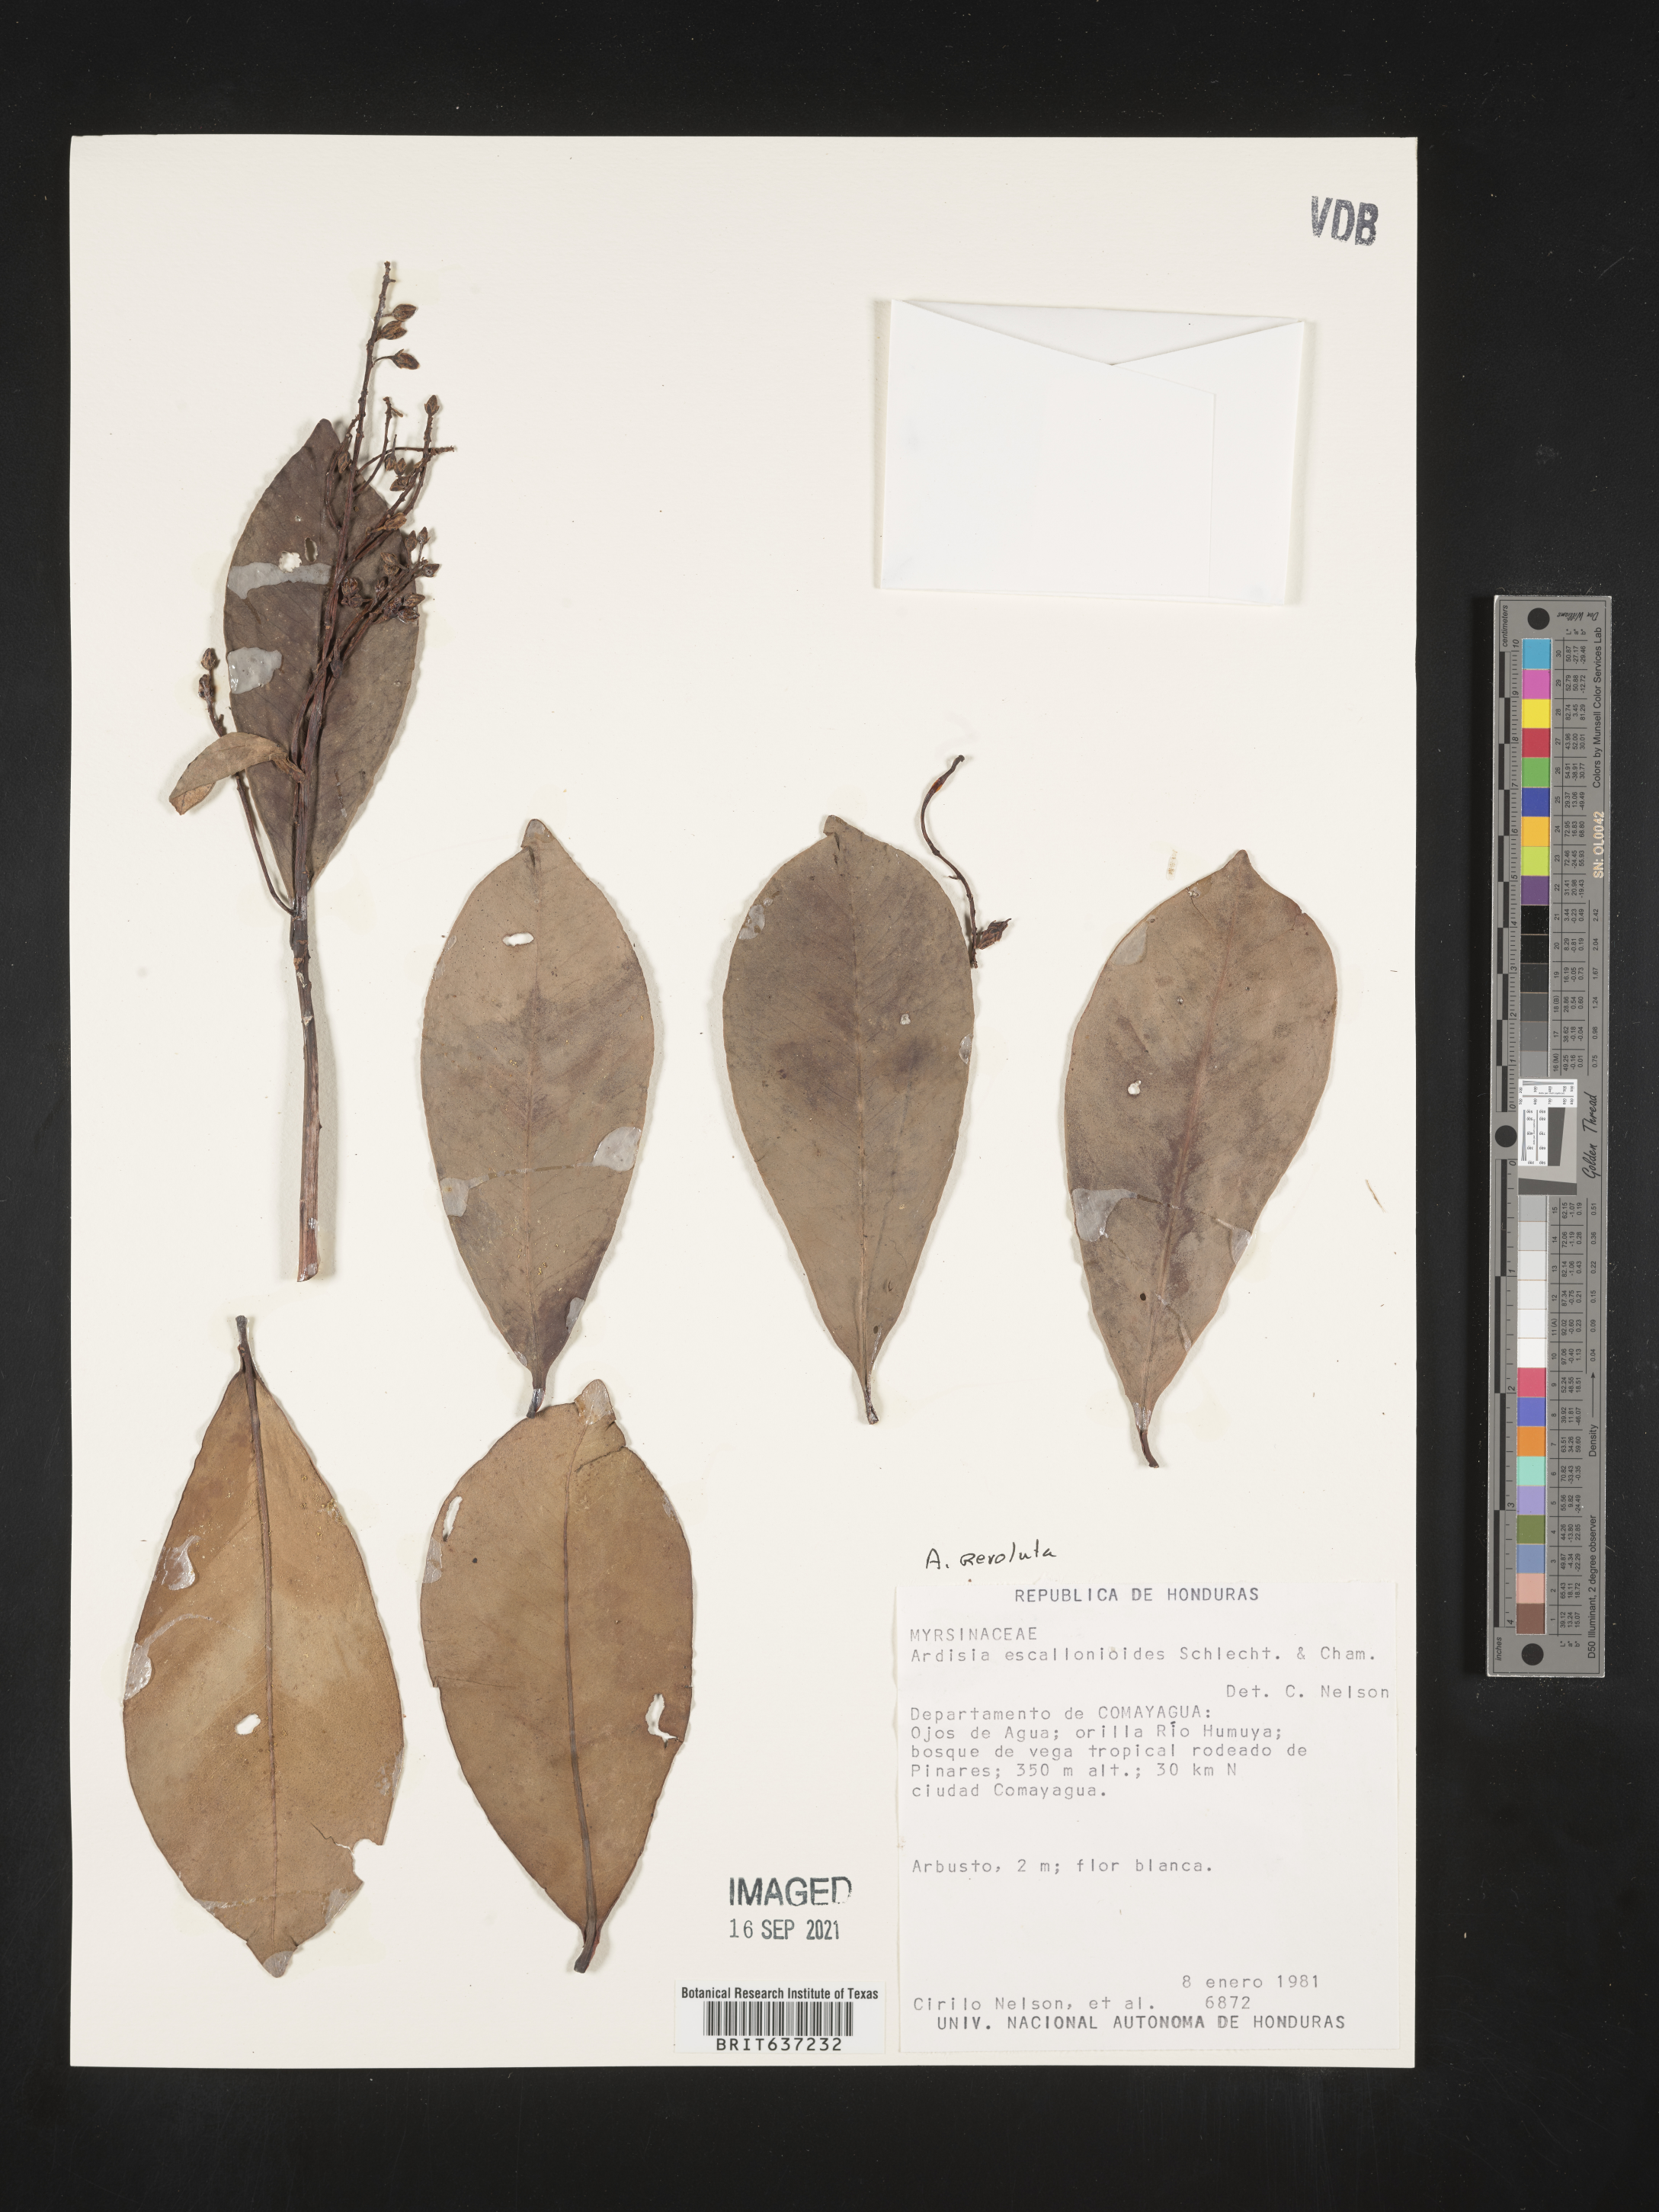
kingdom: Plantae
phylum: Tracheophyta
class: Magnoliopsida
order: Ericales
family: Primulaceae
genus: Ardisia
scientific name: Ardisia
